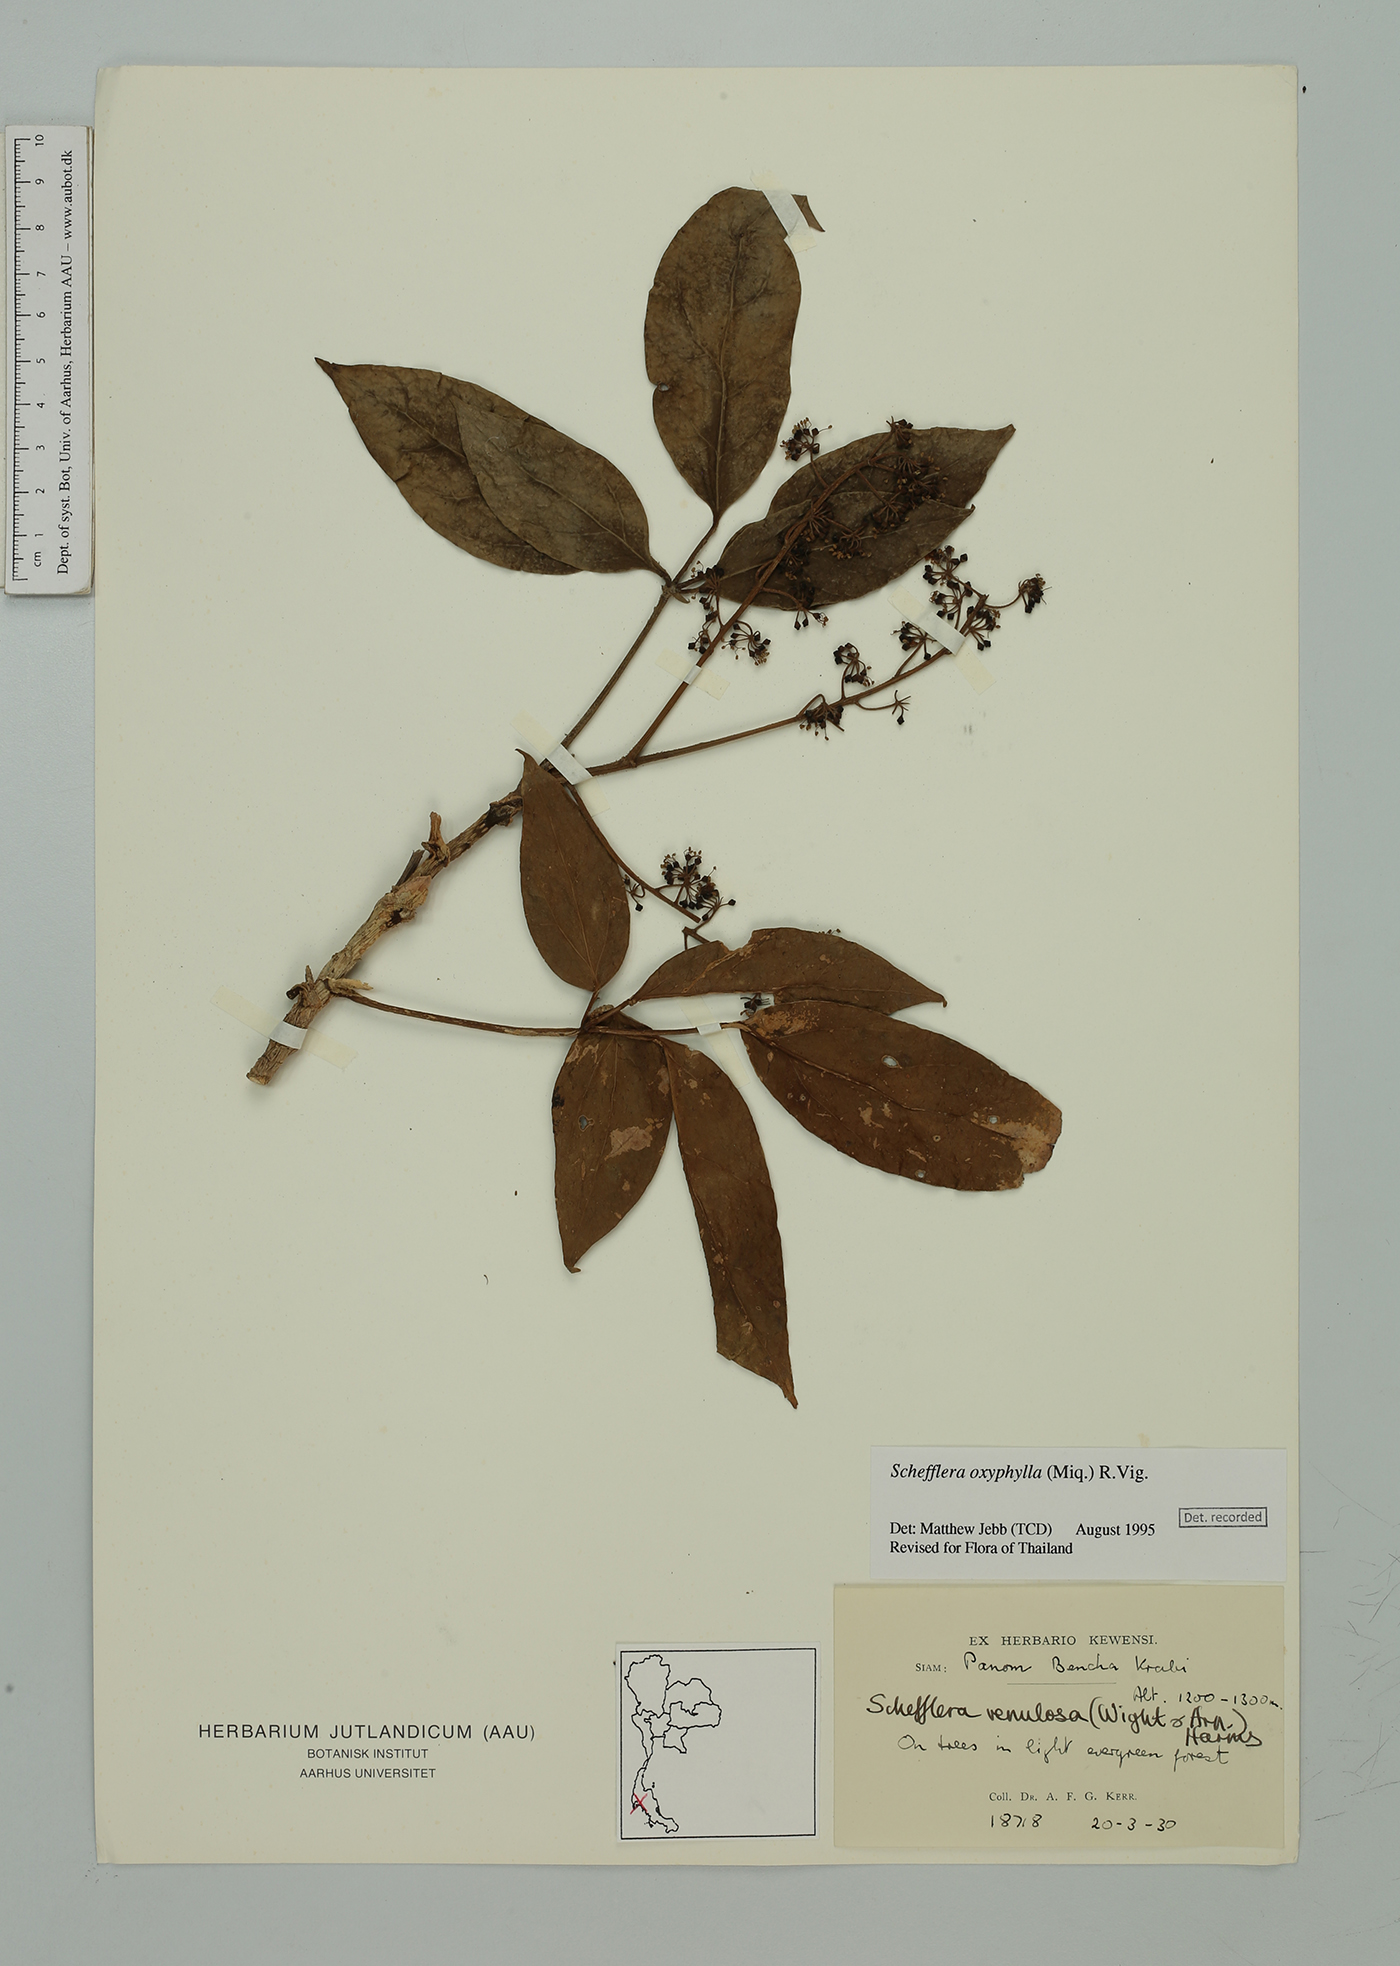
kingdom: Plantae
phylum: Tracheophyta
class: Magnoliopsida
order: Apiales
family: Araliaceae
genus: Heptapleurum
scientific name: Heptapleurum oxyphyllum
